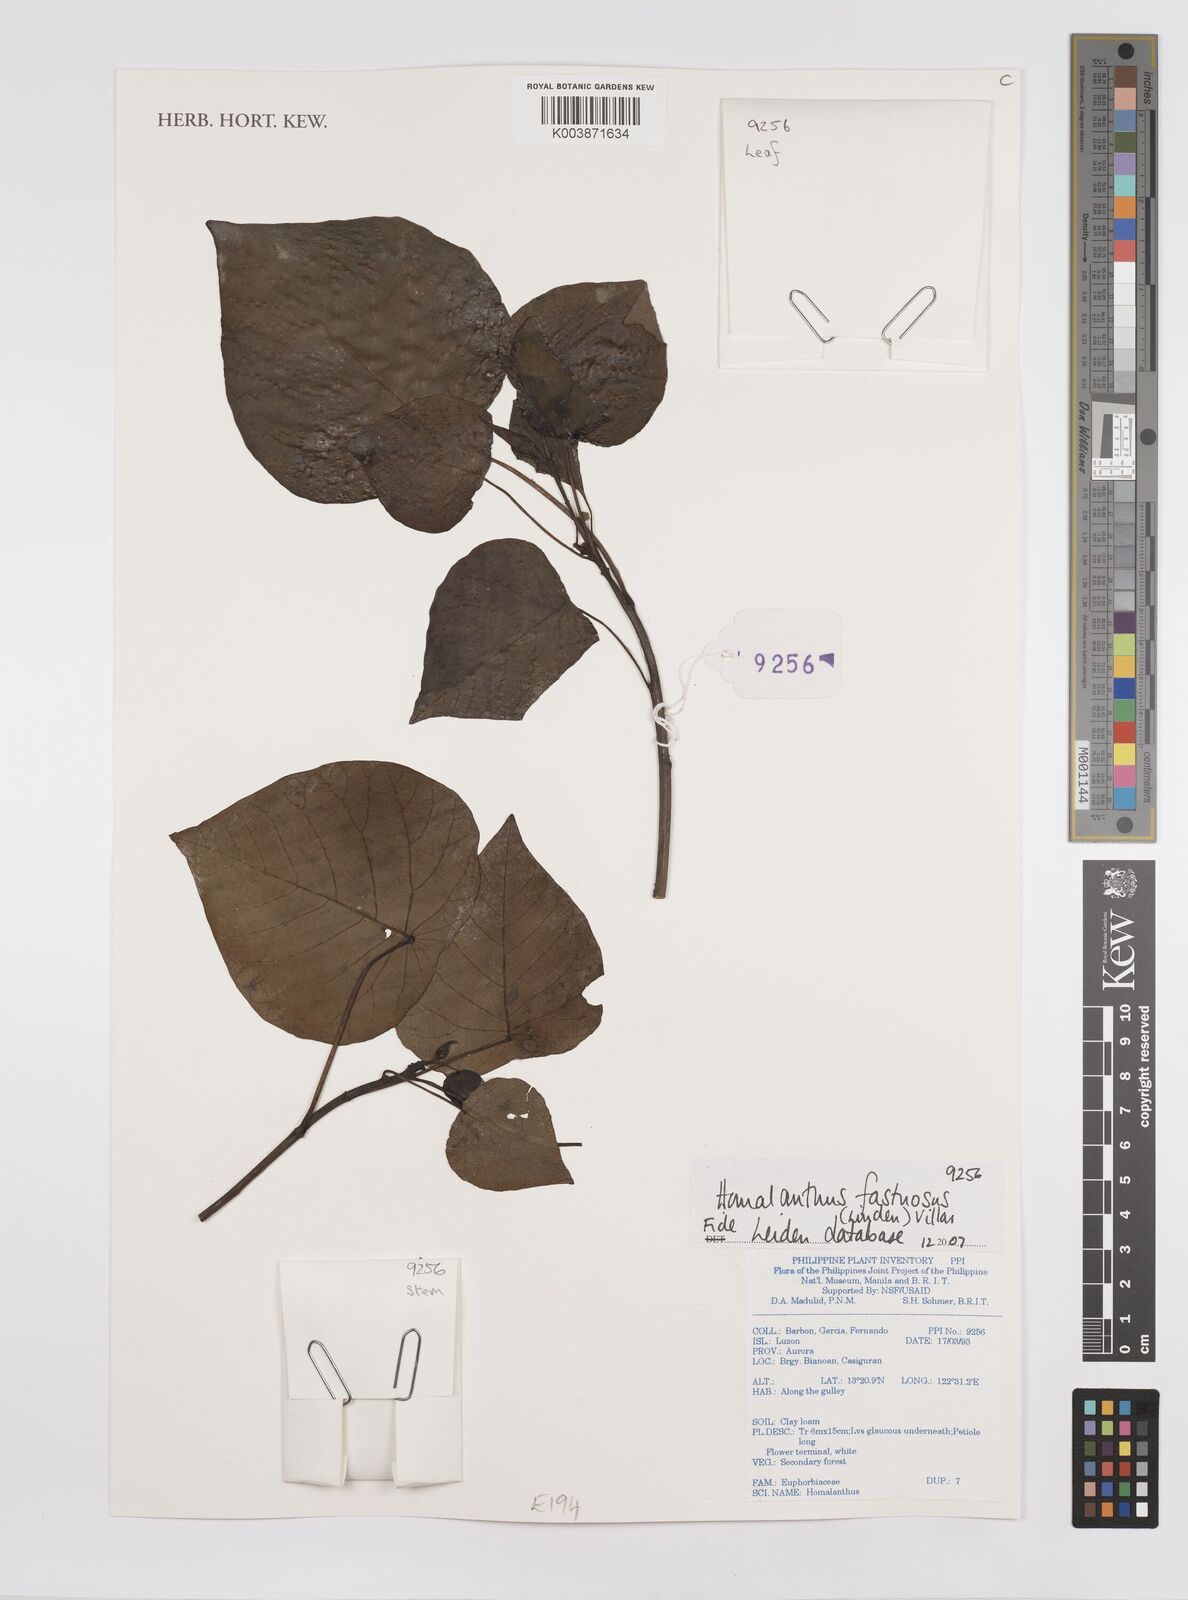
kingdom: Plantae
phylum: Tracheophyta
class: Magnoliopsida
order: Malpighiales
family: Euphorbiaceae
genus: Homalanthus
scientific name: Homalanthus fastuosus
